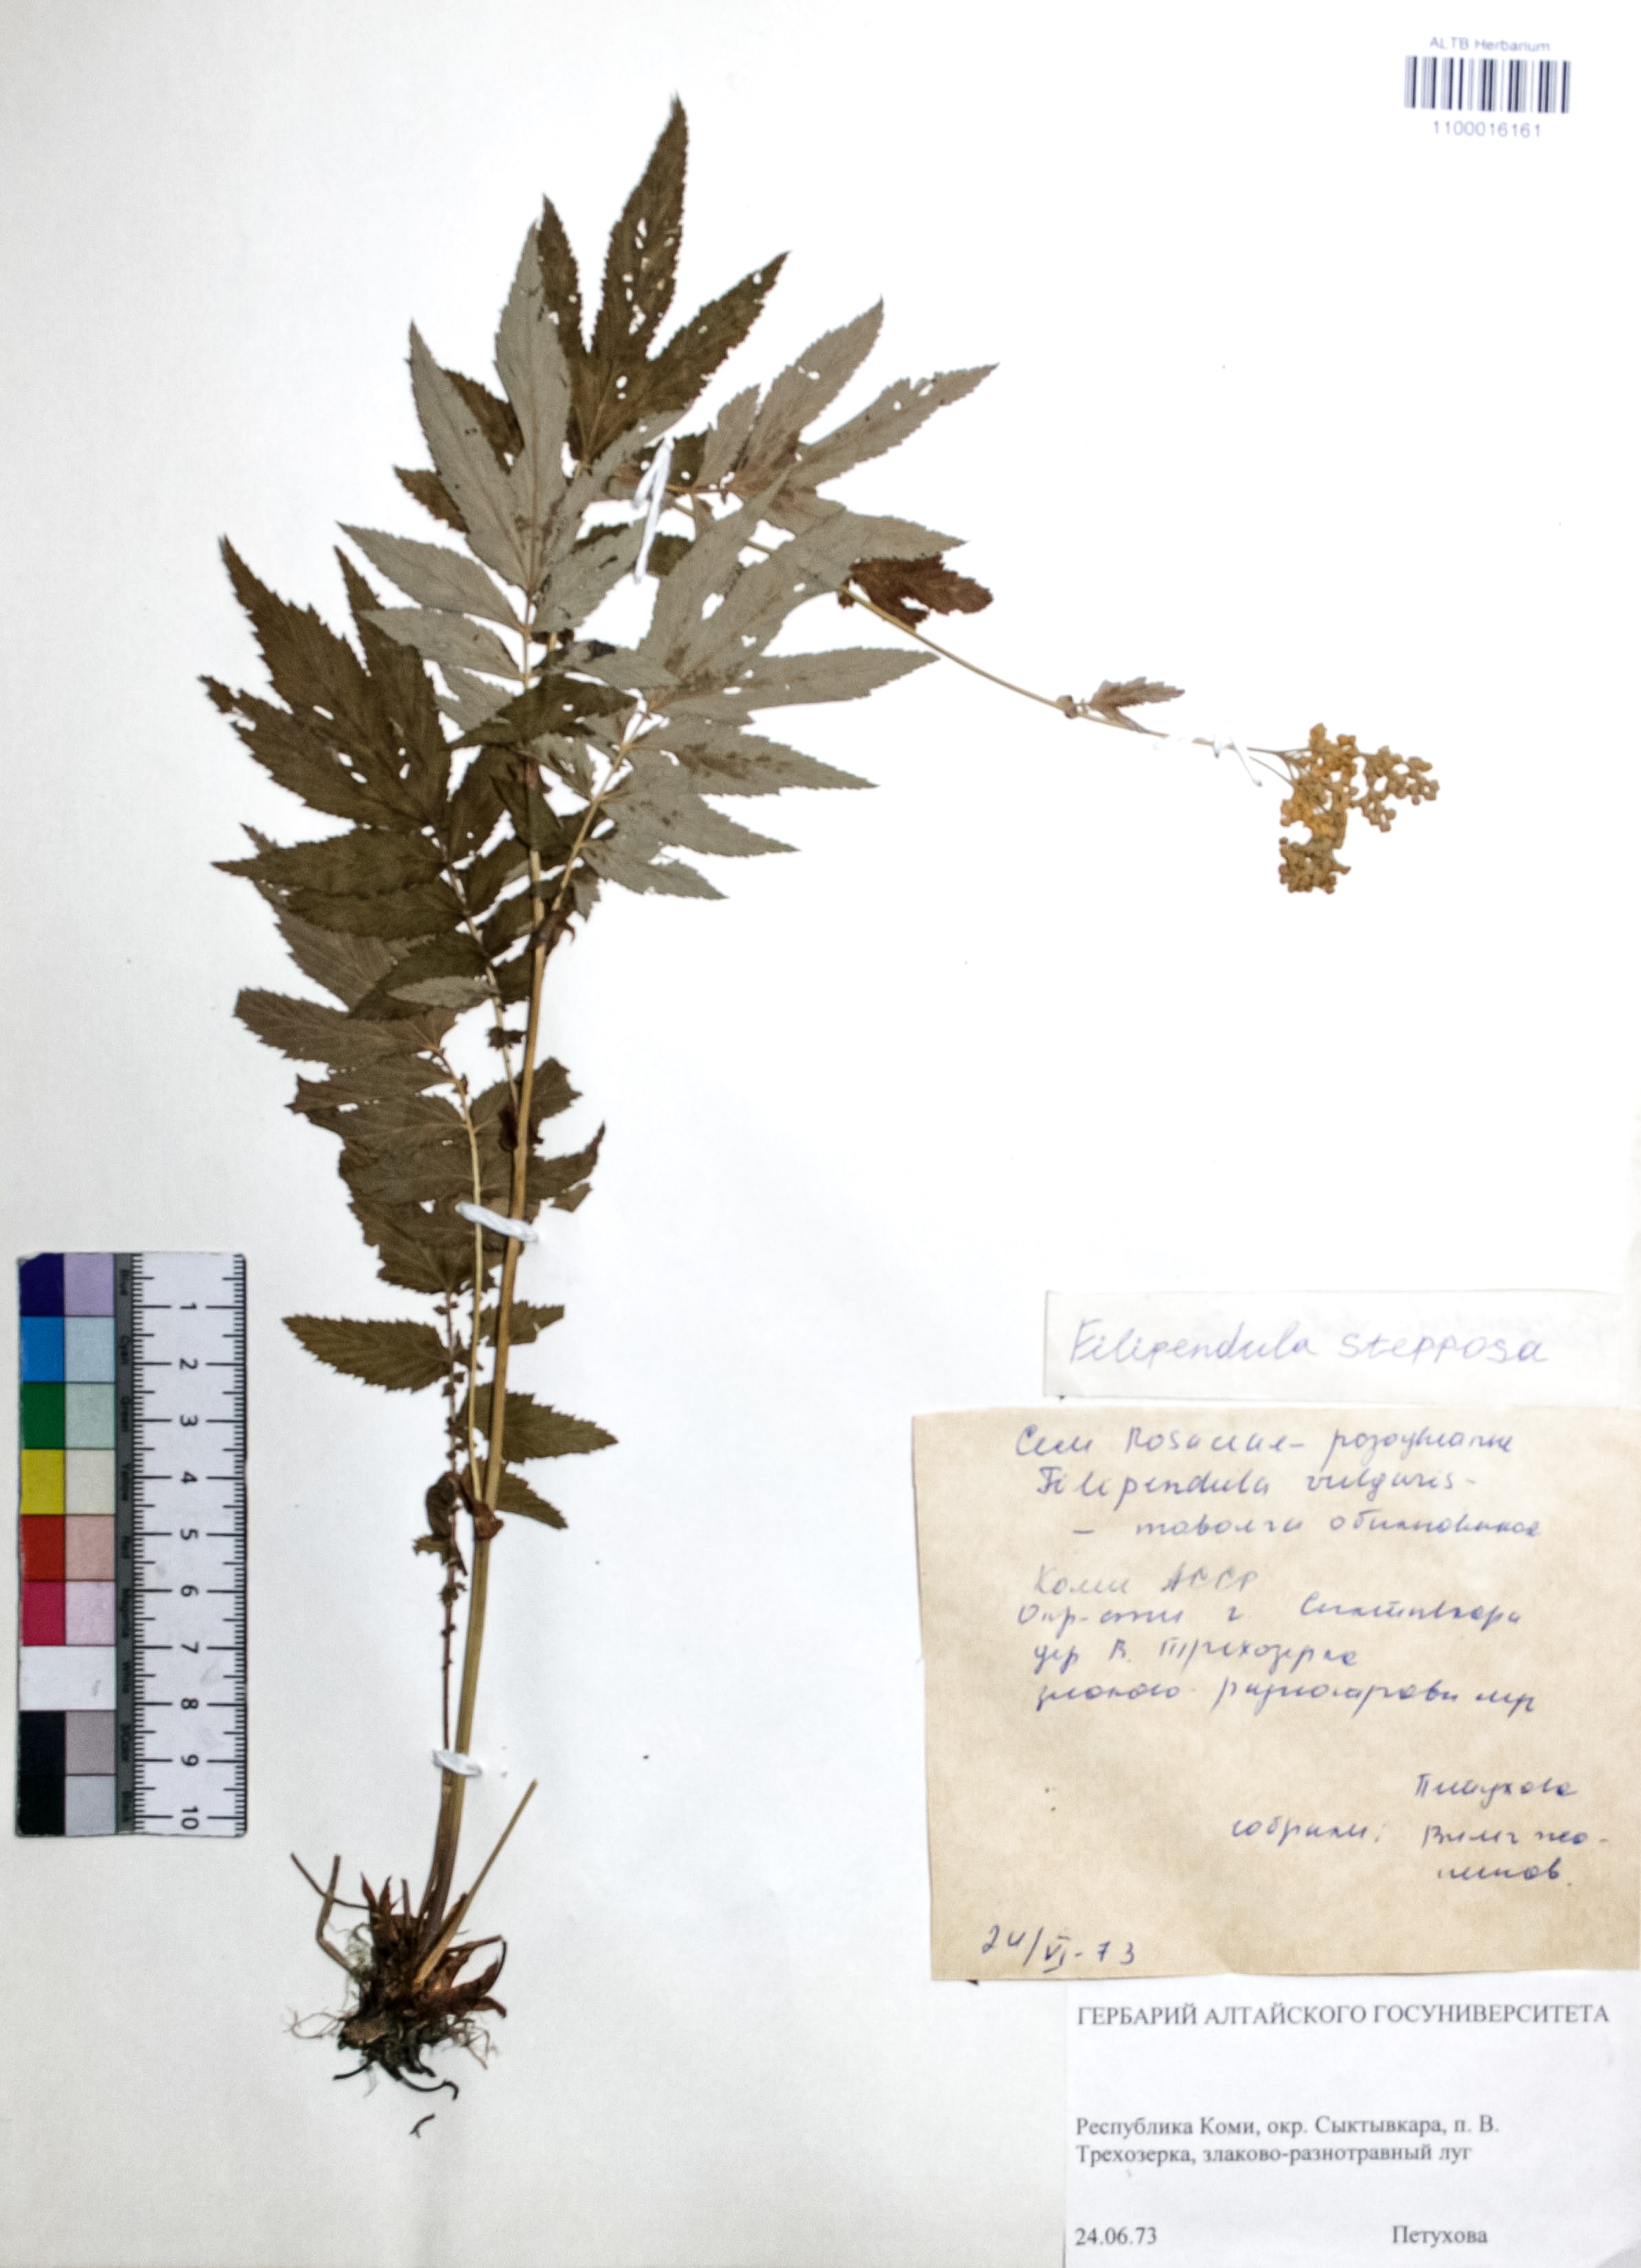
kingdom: Plantae
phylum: Tracheophyta
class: Magnoliopsida
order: Rosales
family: Rosaceae
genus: Filipendula
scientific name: Filipendula ulmaria
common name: Meadowsweet
